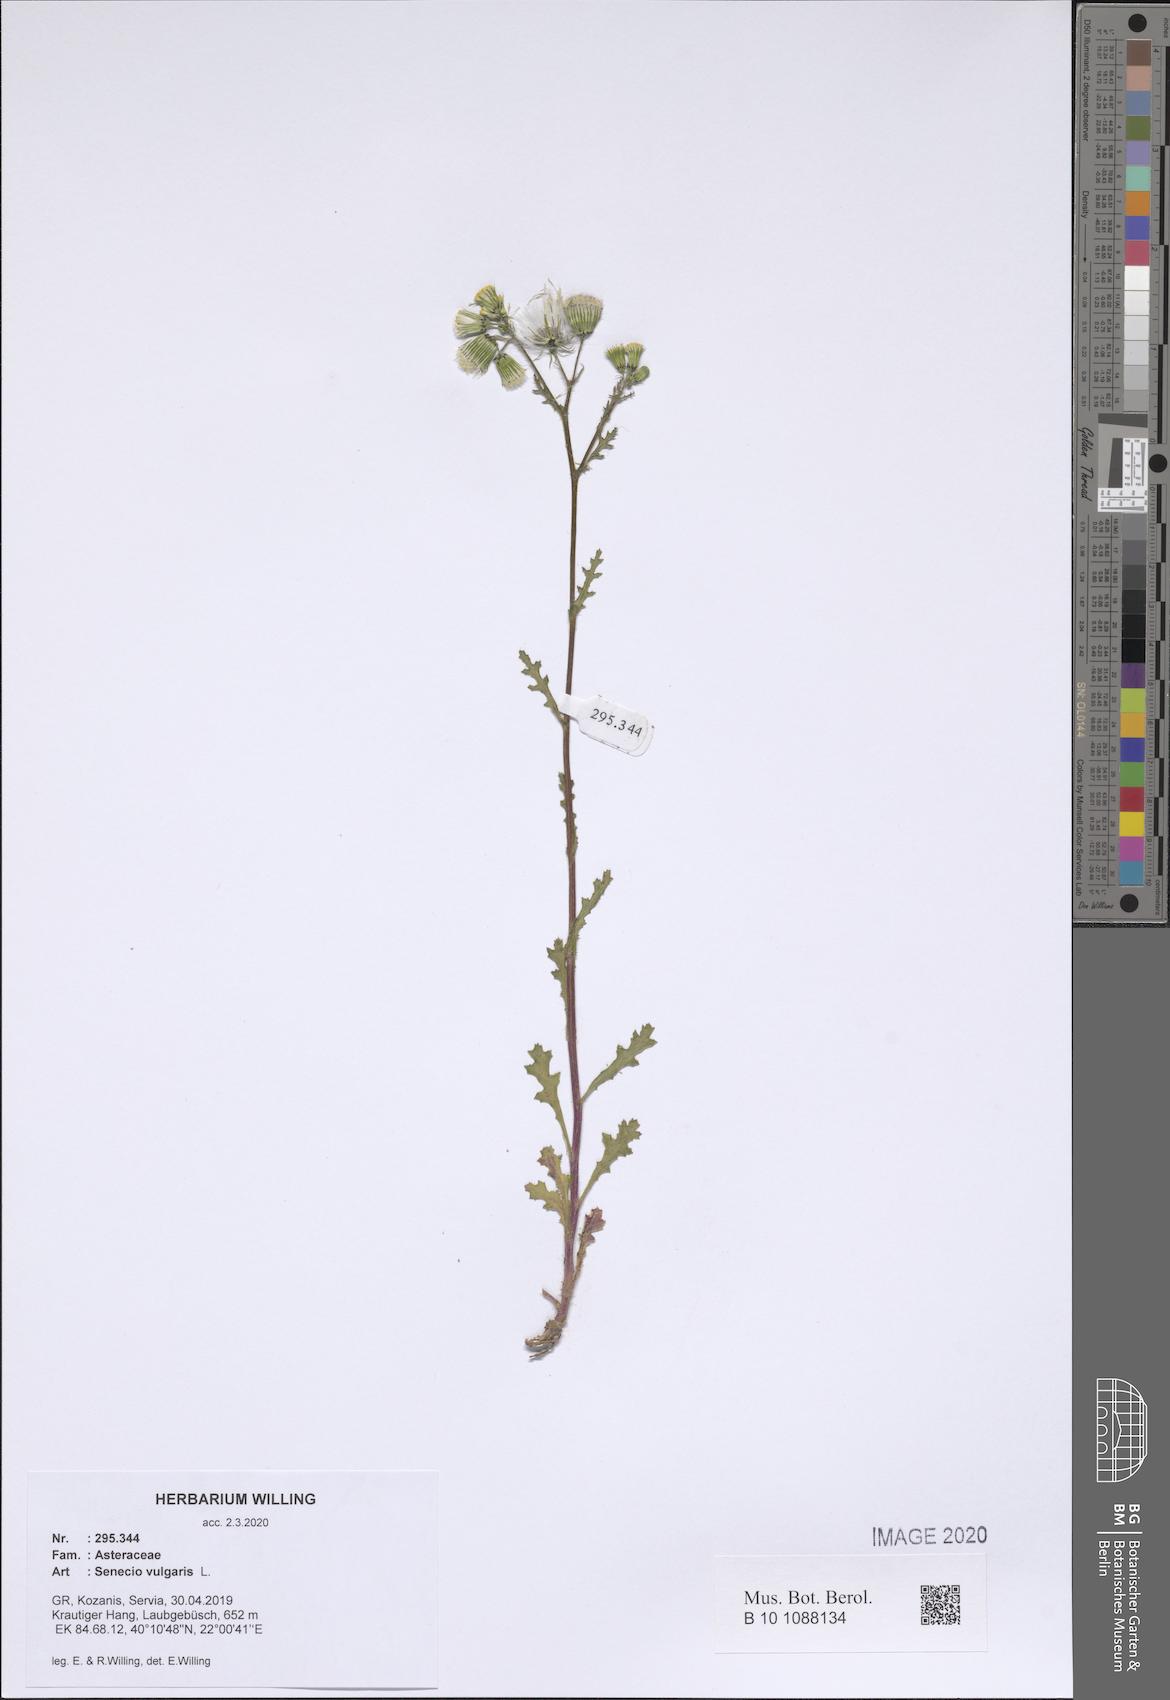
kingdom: Plantae
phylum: Tracheophyta
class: Magnoliopsida
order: Asterales
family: Asteraceae
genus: Senecio
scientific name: Senecio vulgaris
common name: Old-man-in-the-spring
